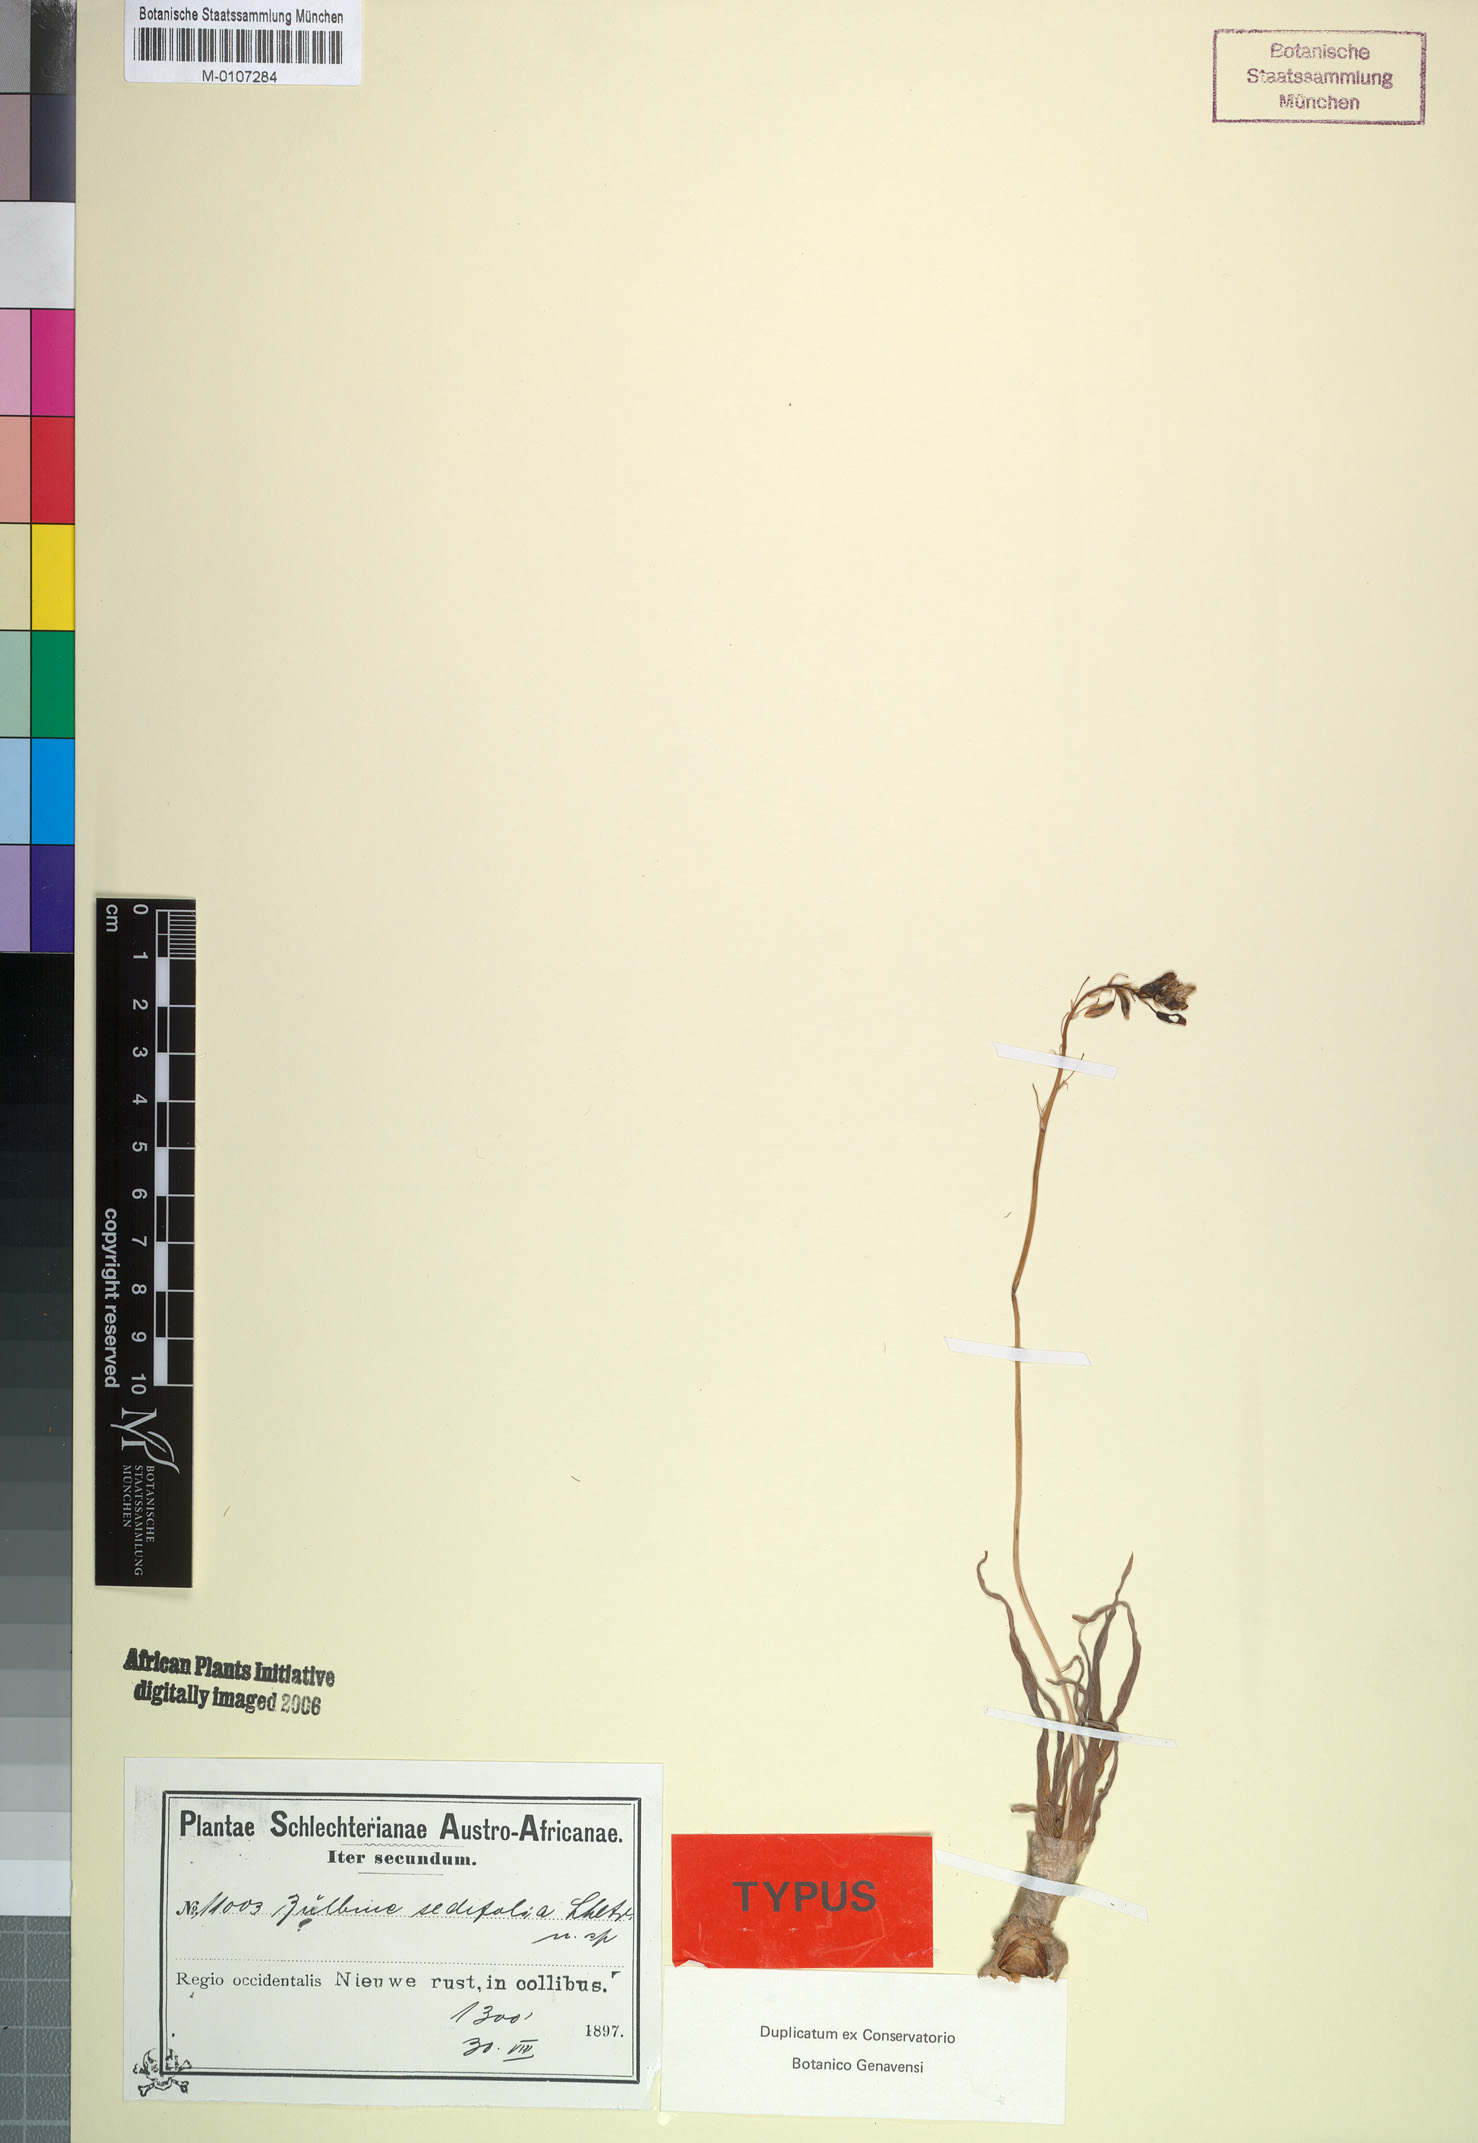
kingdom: Plantae
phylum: Tracheophyta
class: Liliopsida
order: Asparagales
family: Asphodelaceae
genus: Bulbine
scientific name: Bulbine sedifolia
